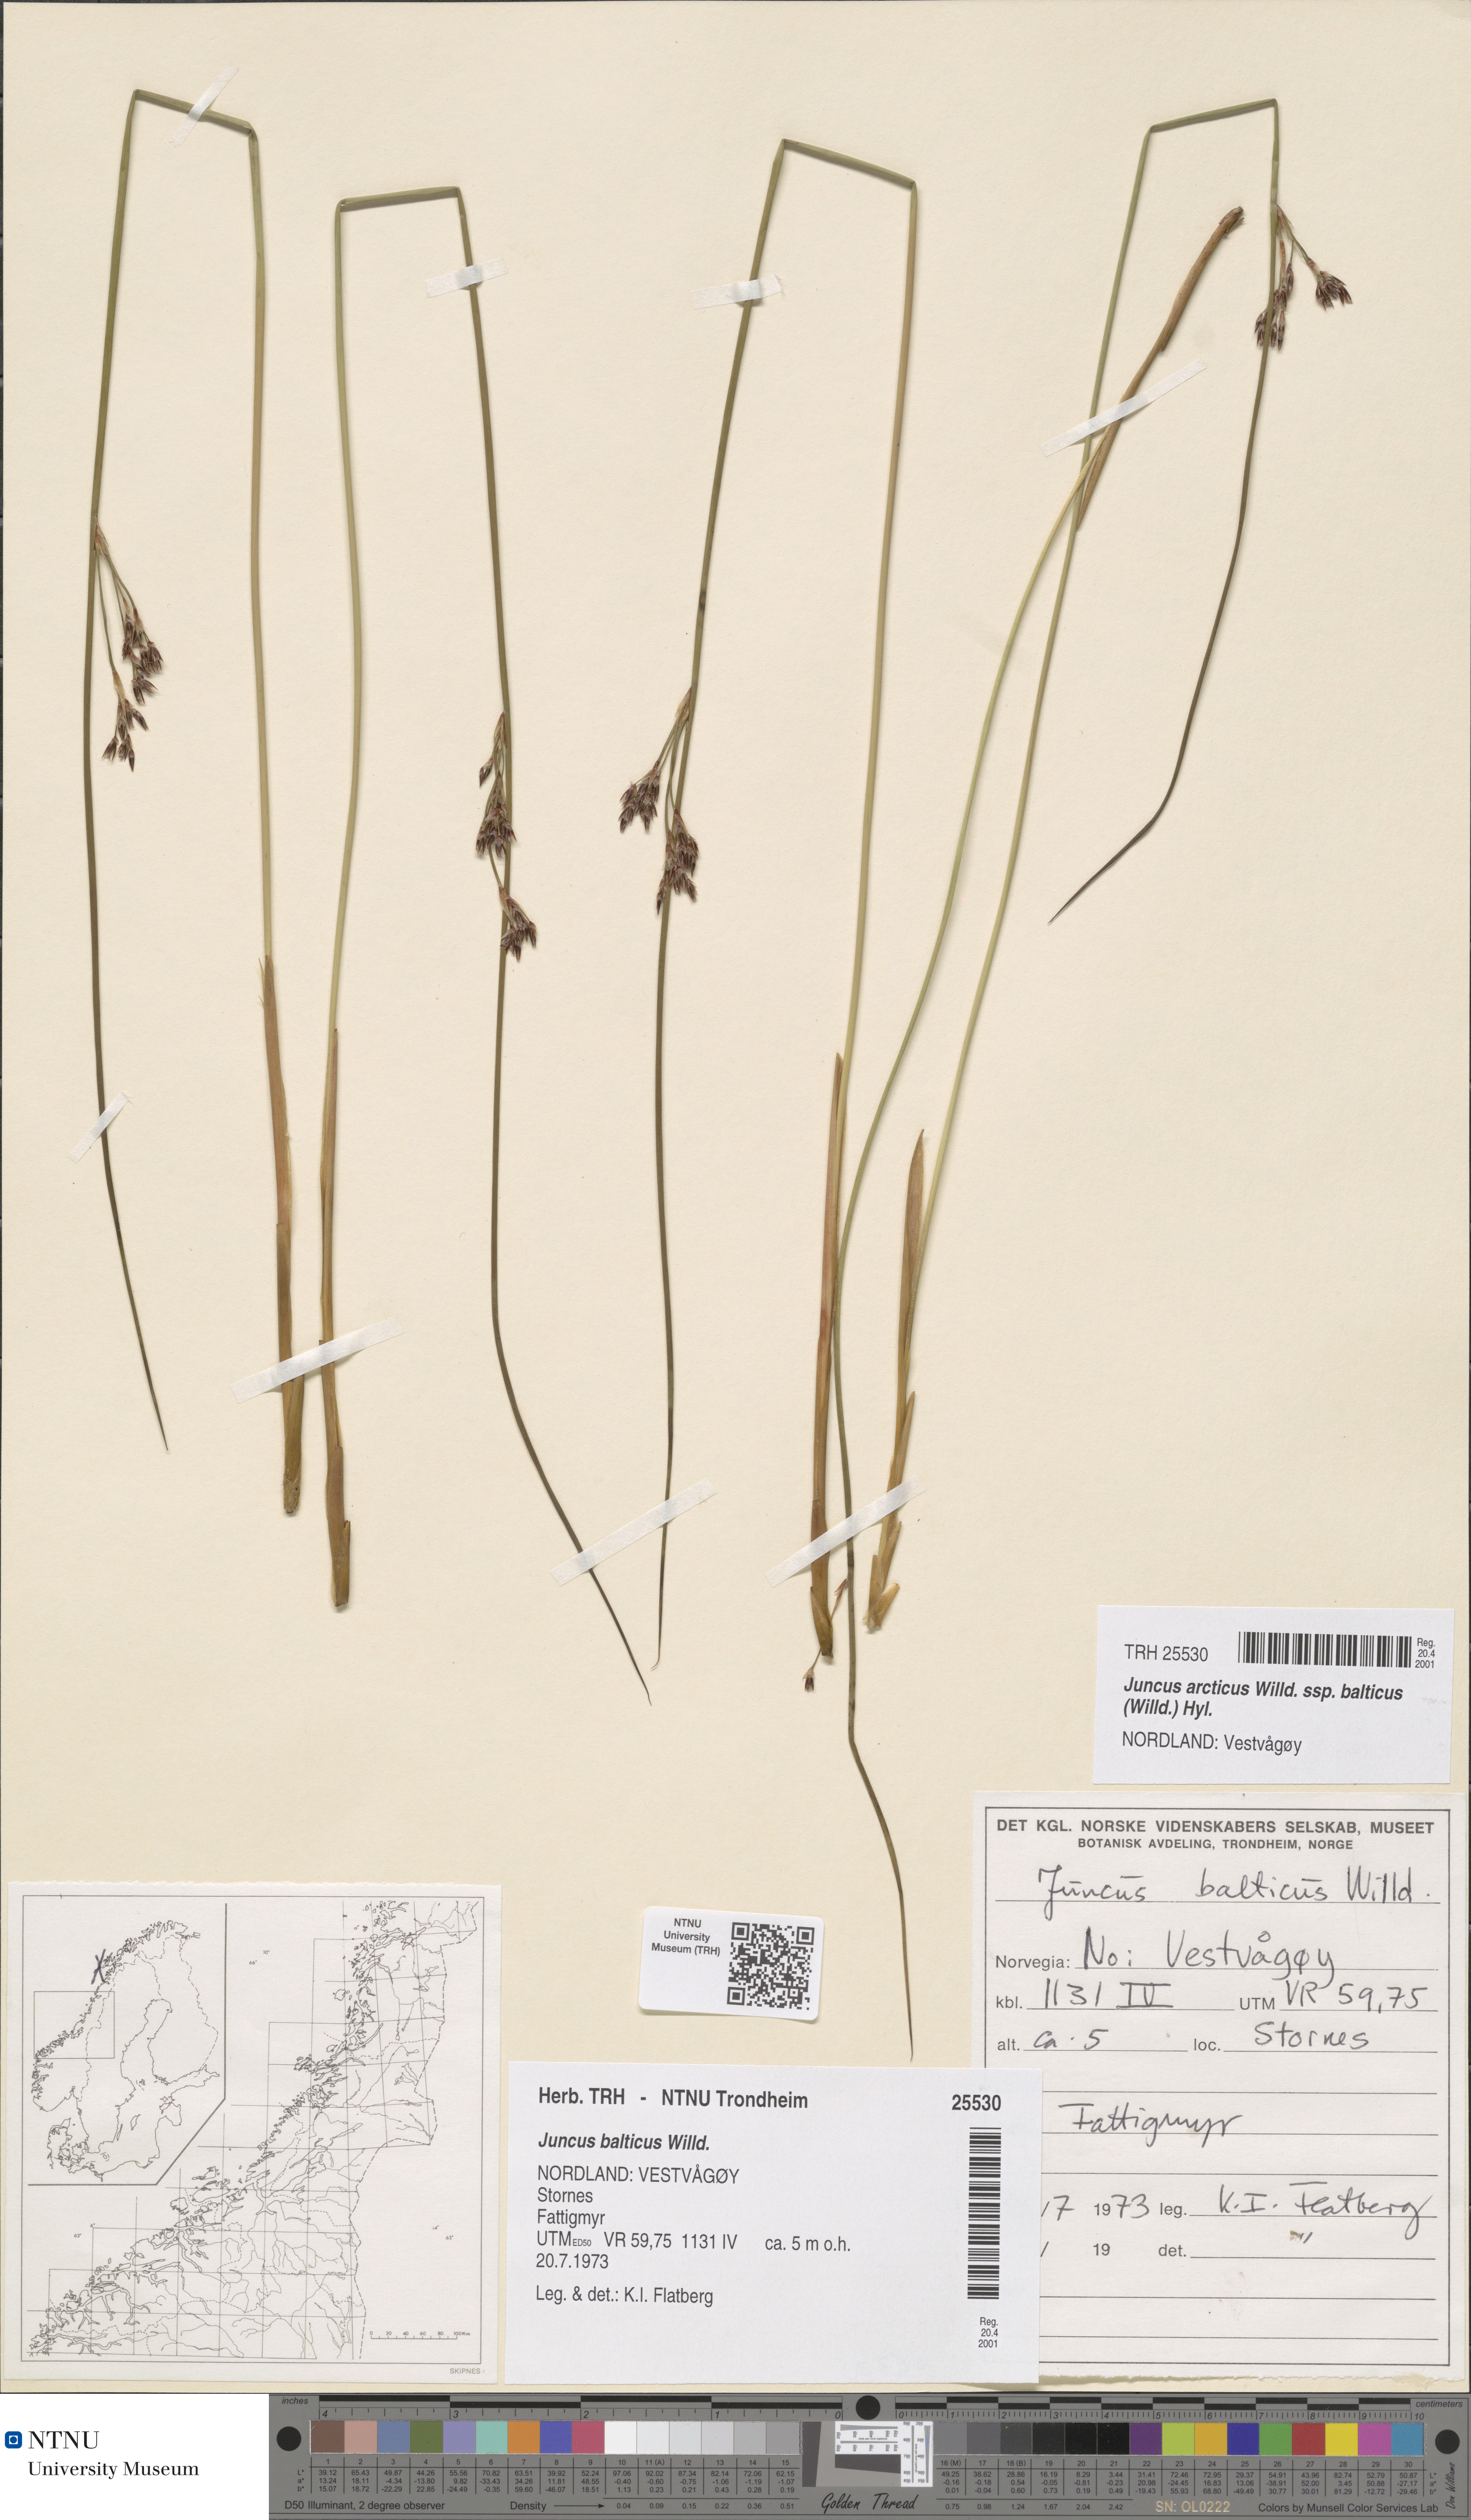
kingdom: Plantae
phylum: Tracheophyta
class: Liliopsida
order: Poales
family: Juncaceae
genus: Juncus
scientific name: Juncus balticus
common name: Baltic rush
